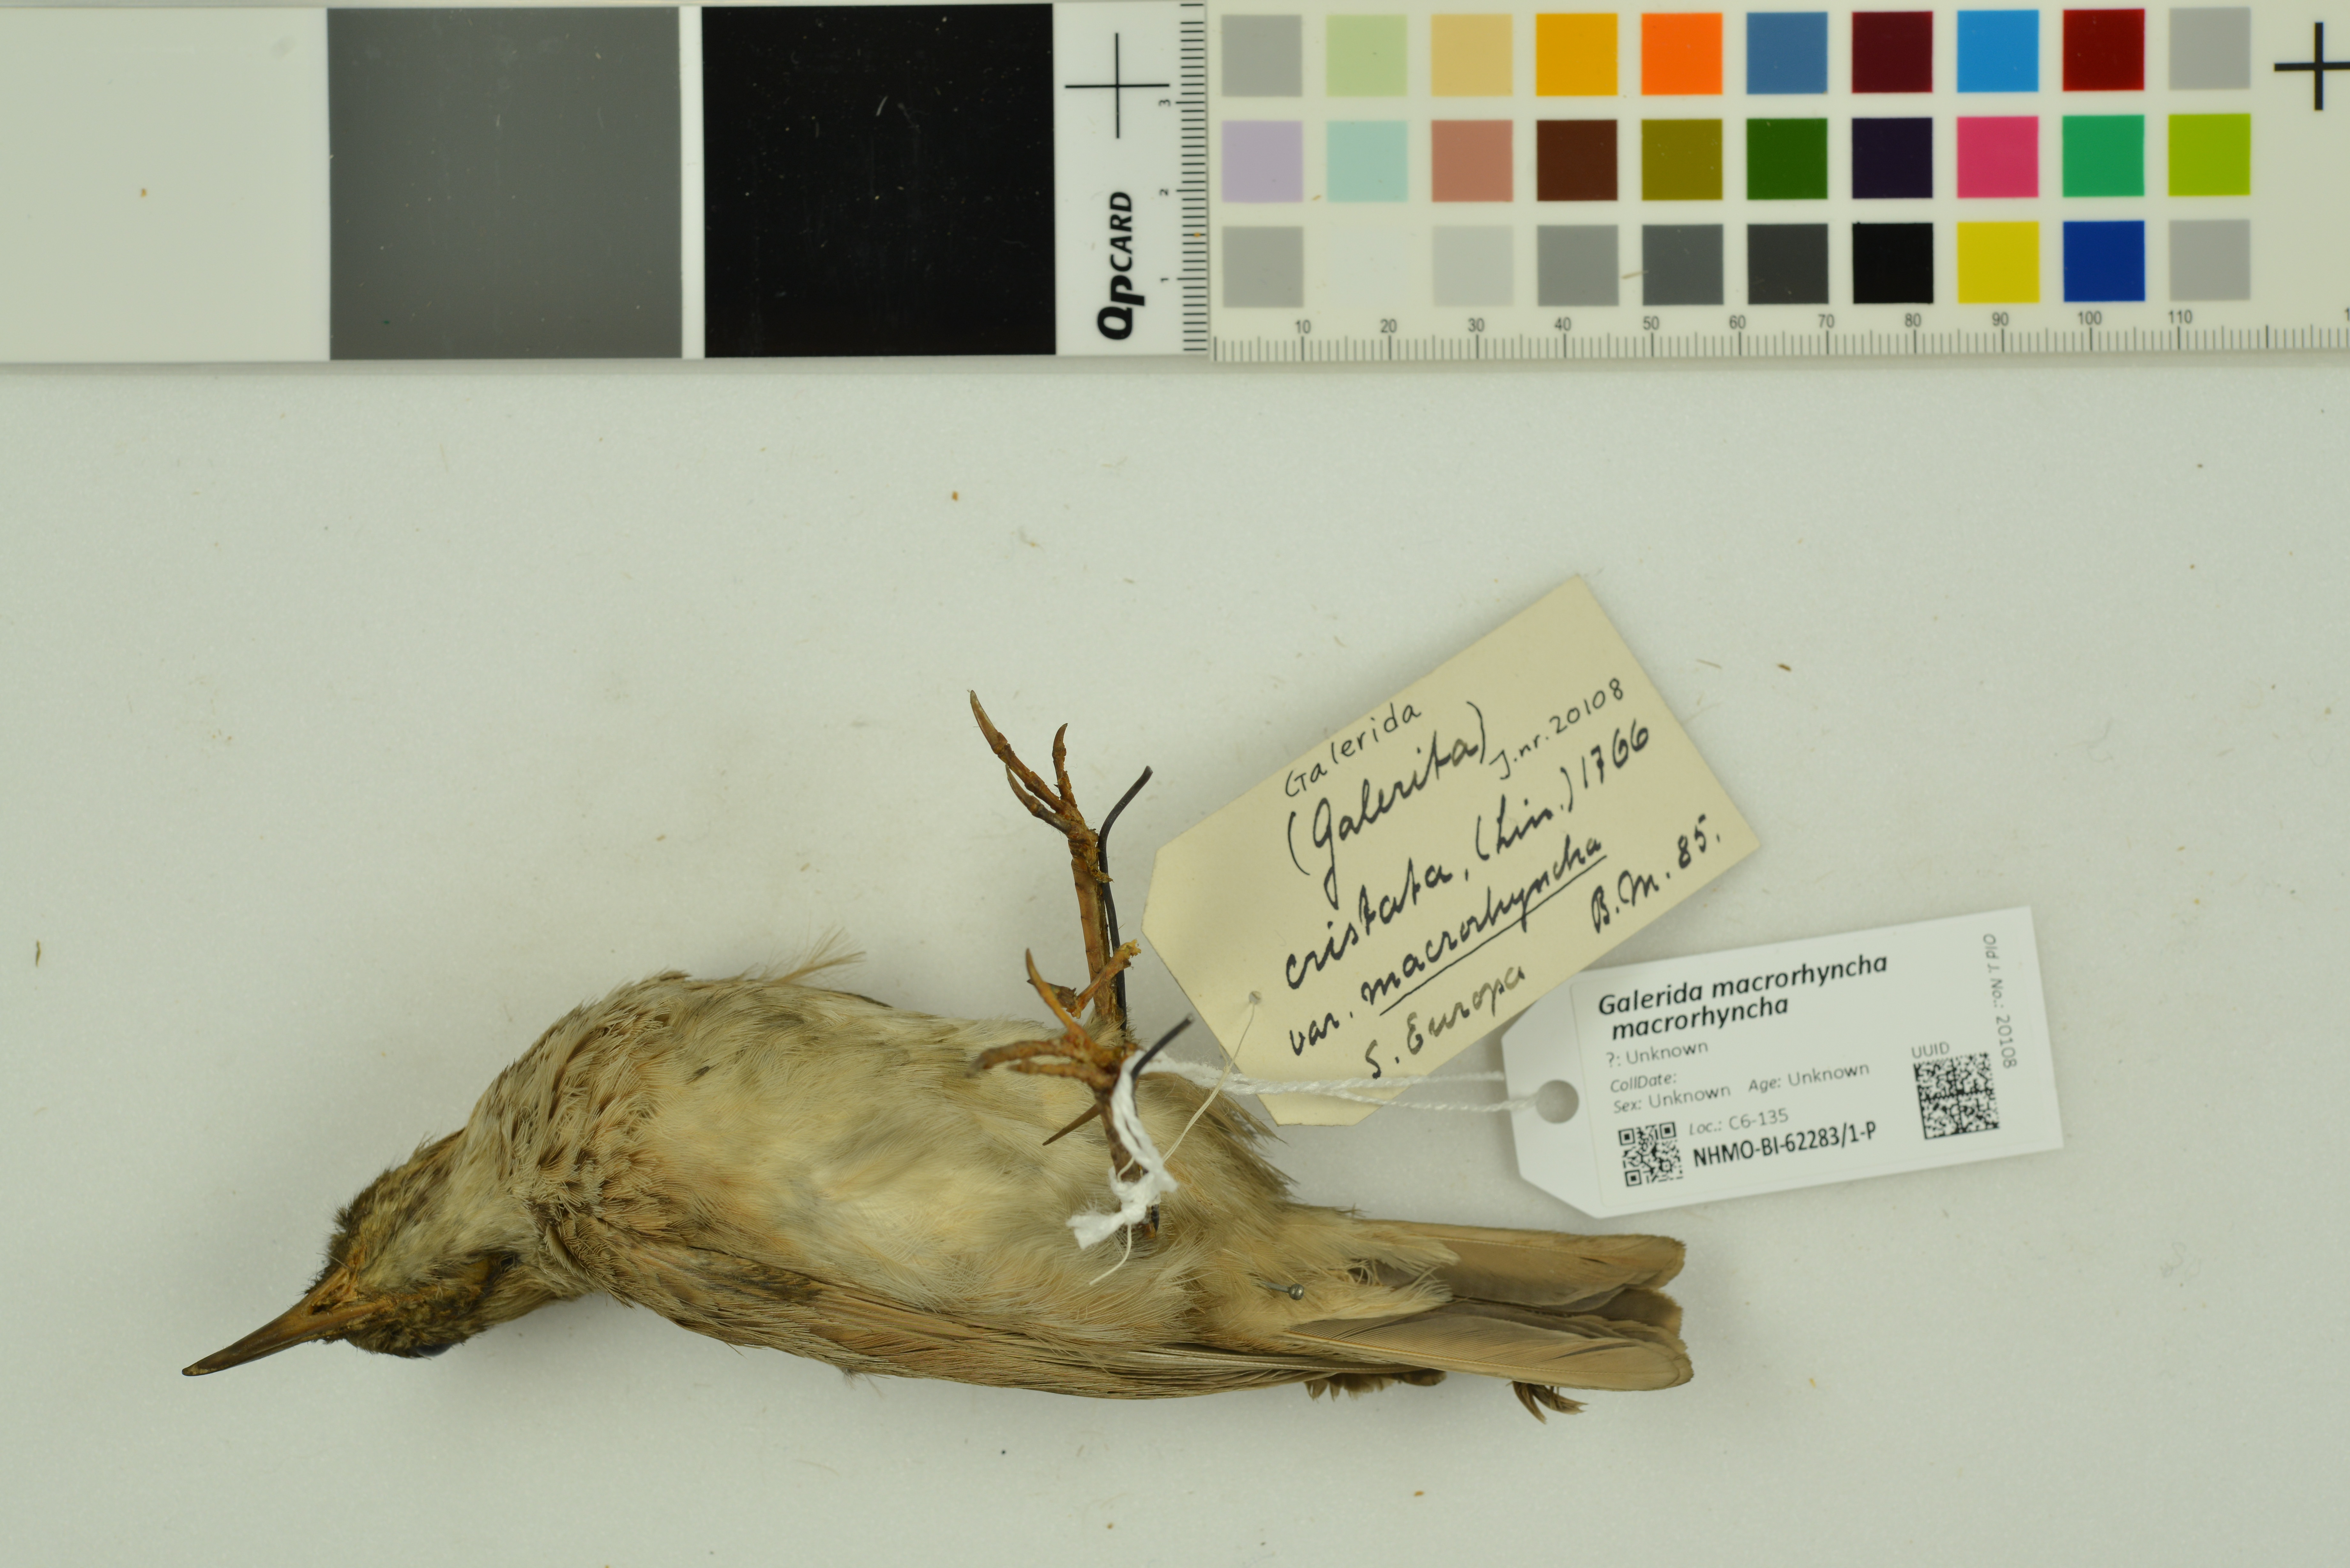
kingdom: Animalia
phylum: Chordata
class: Aves
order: Passeriformes
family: Alaudidae
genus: Galerida
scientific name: Galerida macrorhyncha
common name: Maghreb lark
